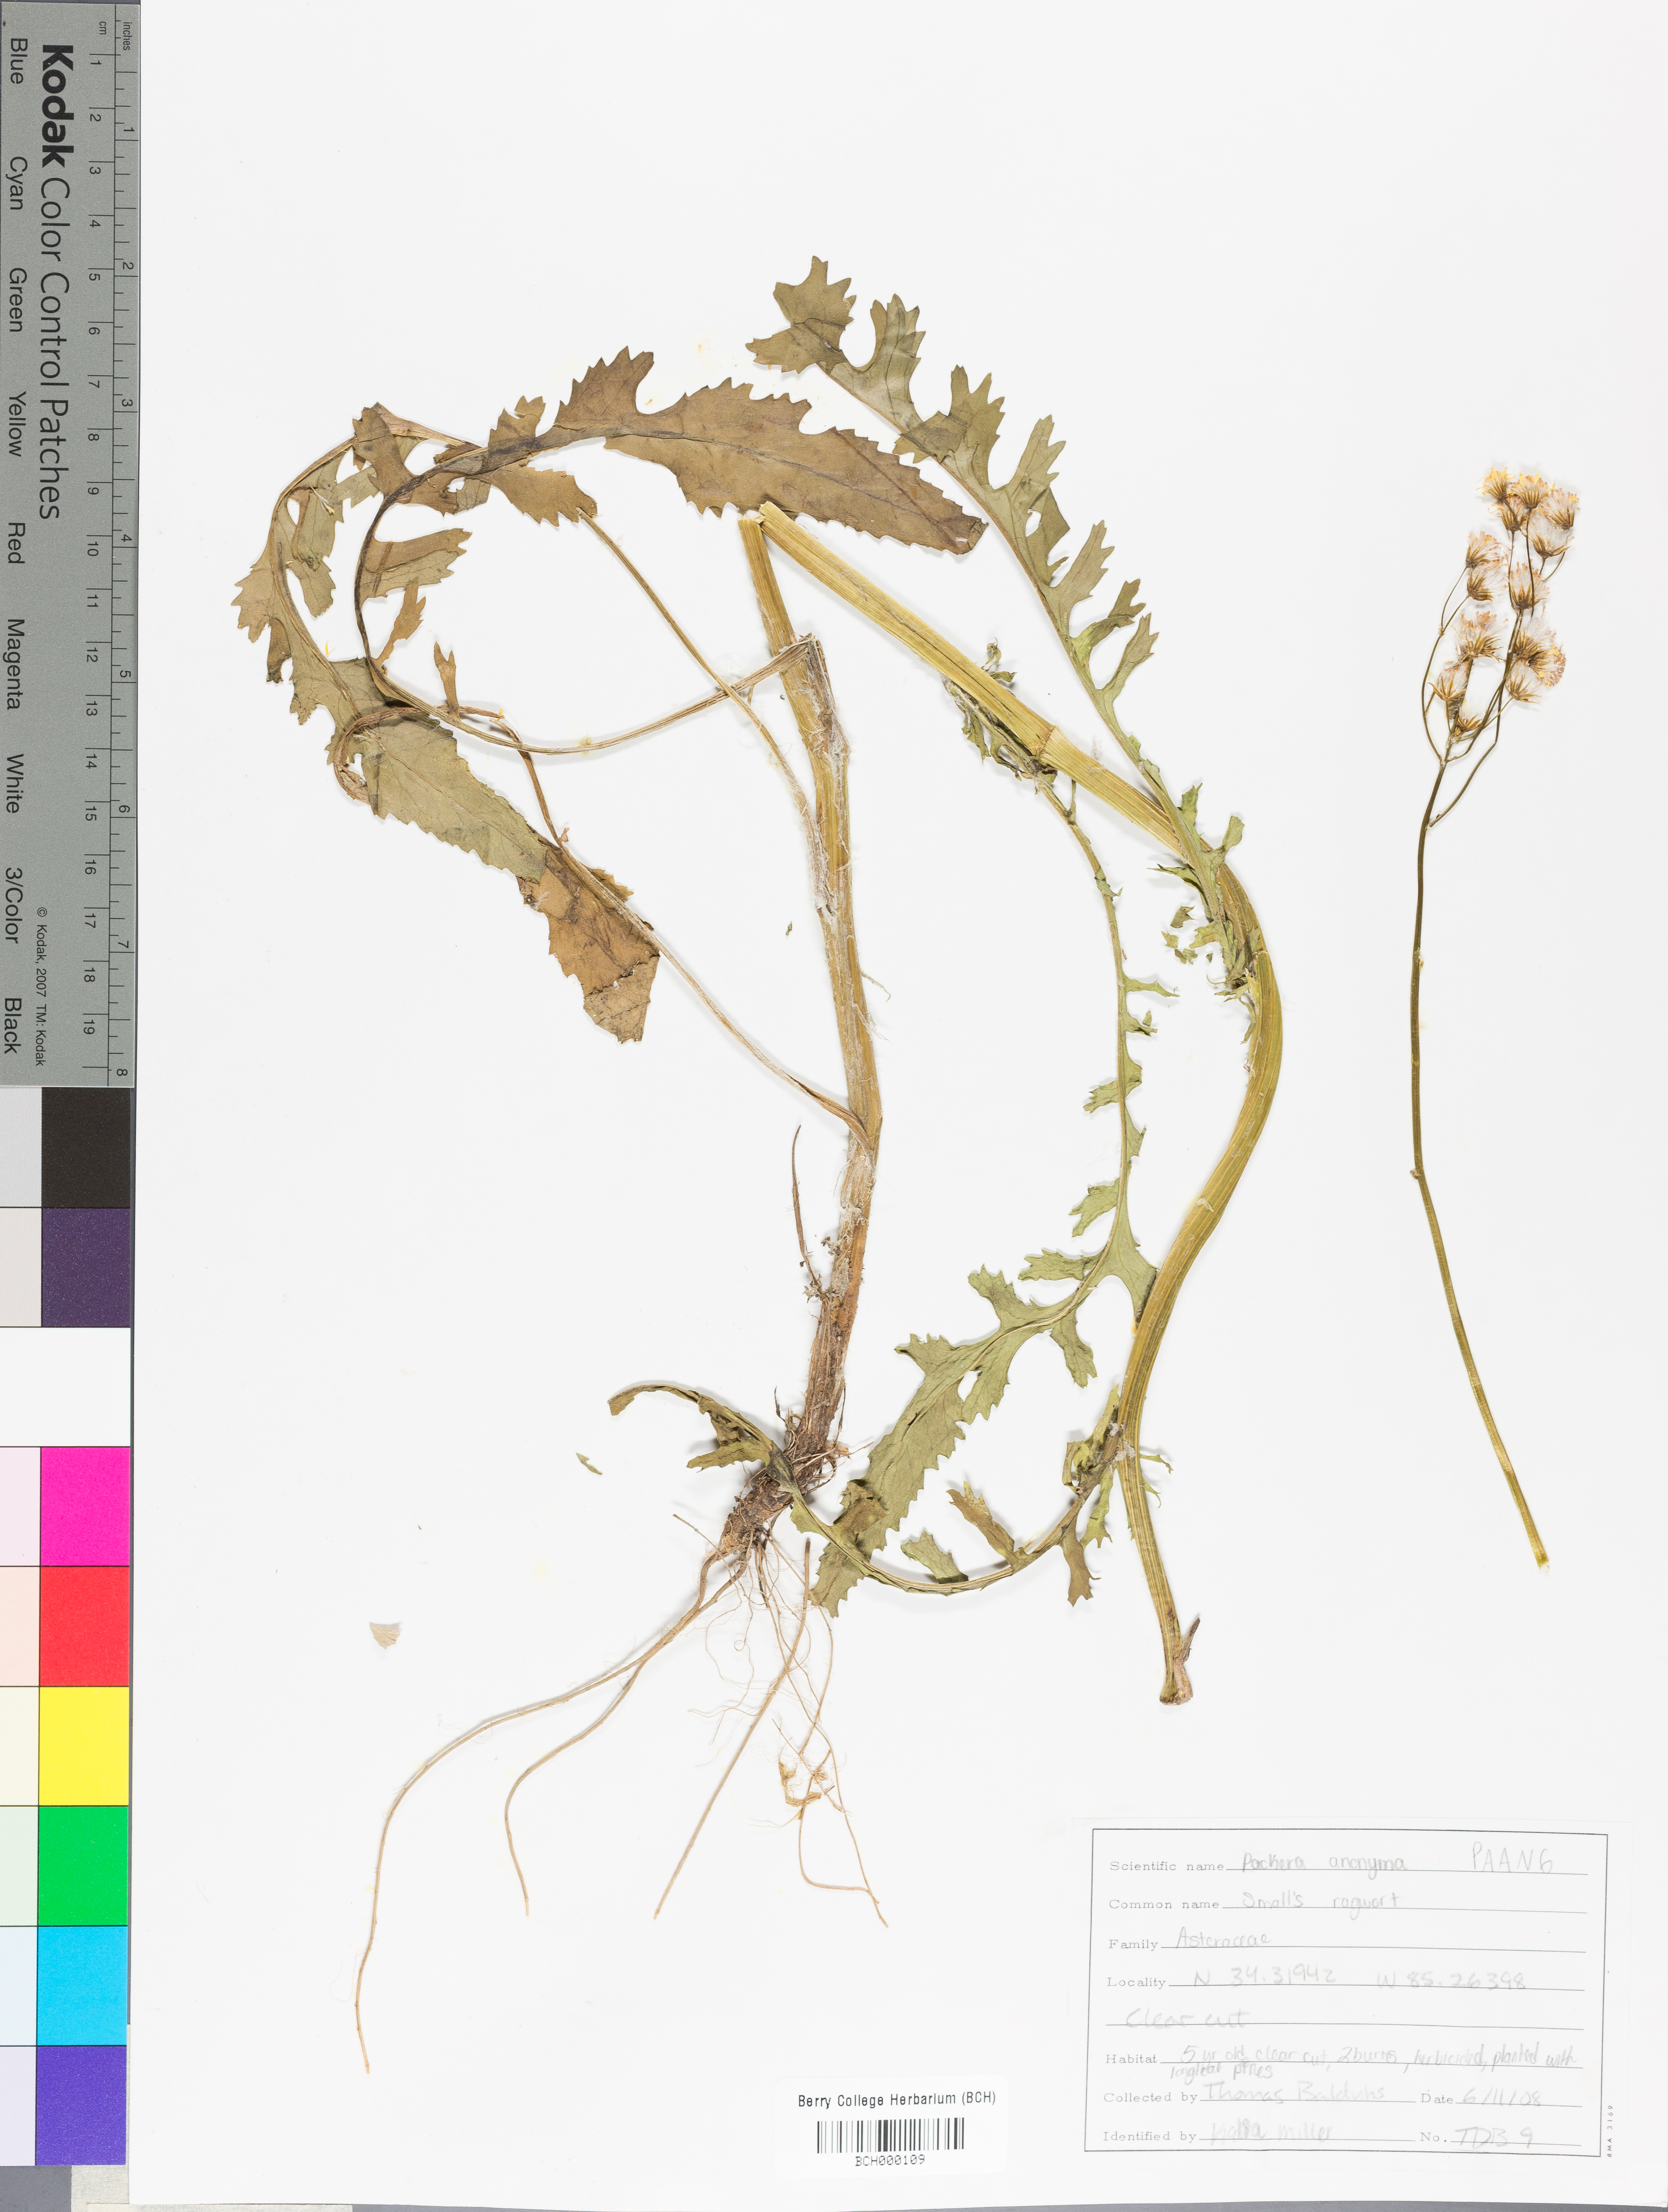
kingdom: Plantae
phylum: Tracheophyta
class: Magnoliopsida
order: Asterales
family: Asteraceae
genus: Packera
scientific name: Packera anonyma
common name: Small ragwort
